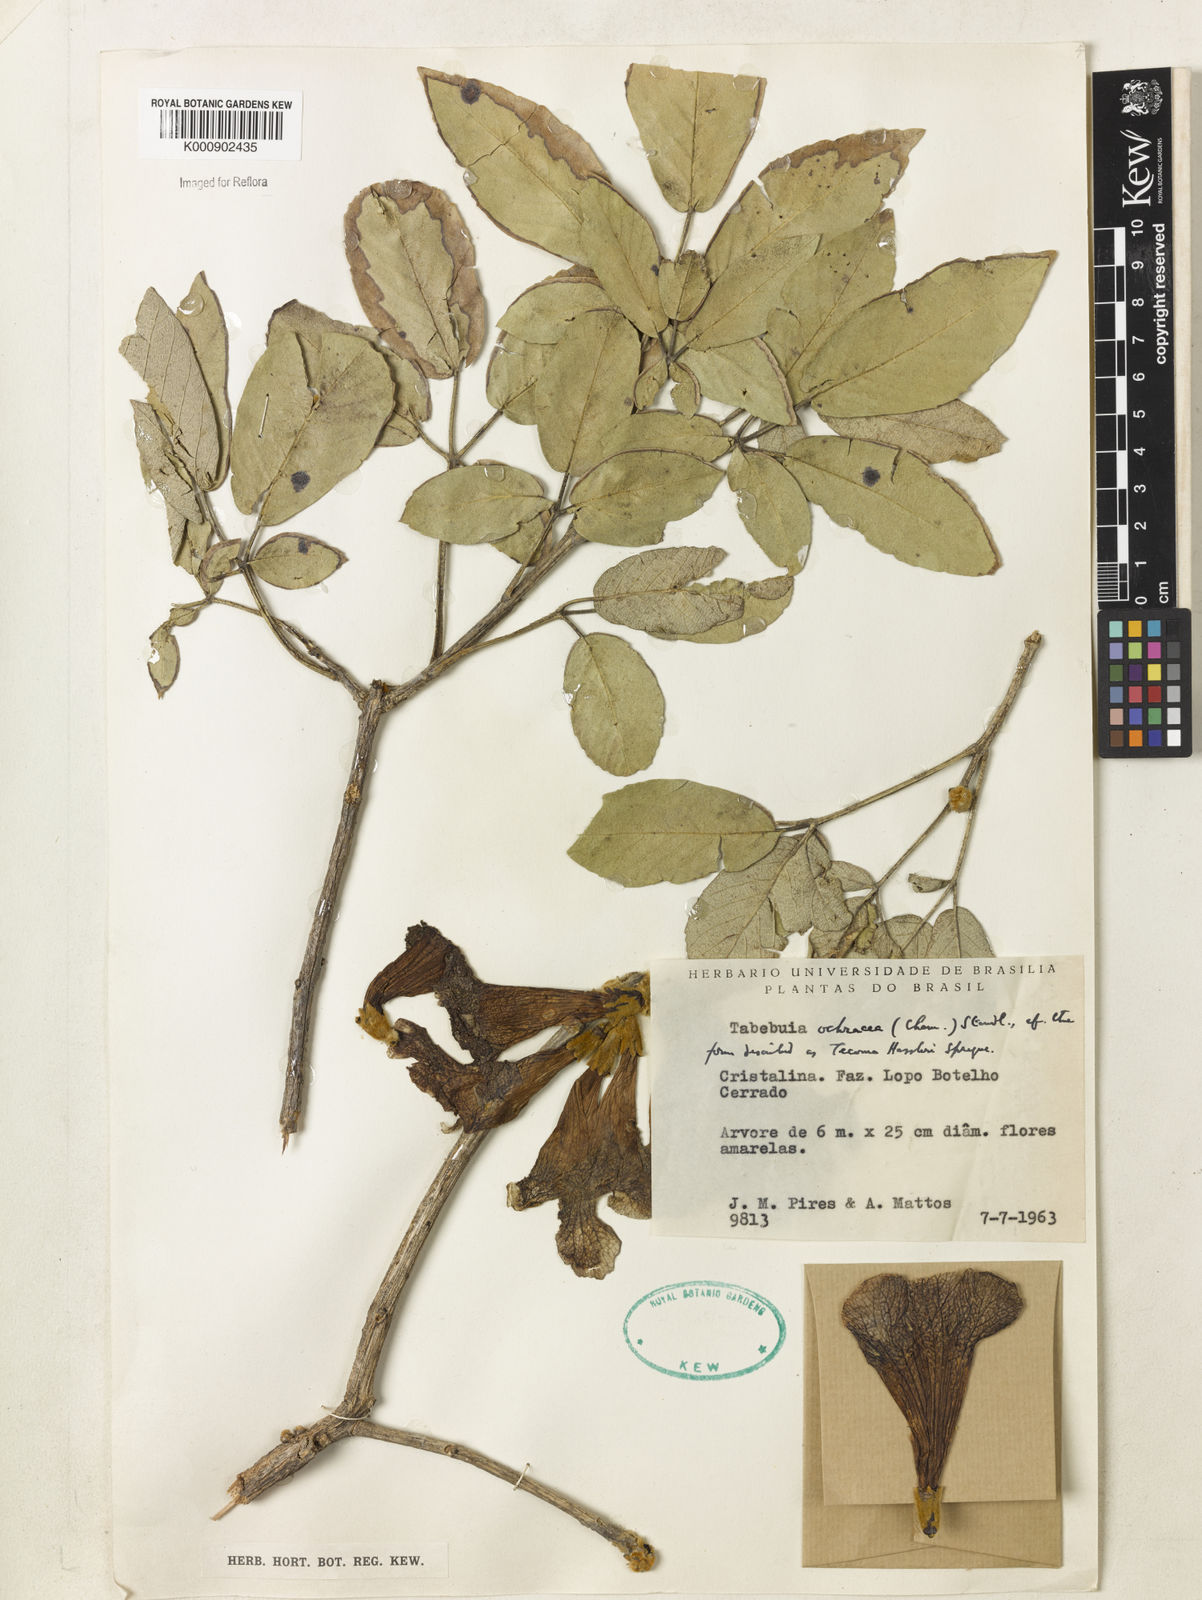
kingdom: Plantae
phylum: Tracheophyta
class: Magnoliopsida
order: Lamiales
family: Bignoniaceae
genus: Handroanthus
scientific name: Handroanthus ochraceus
